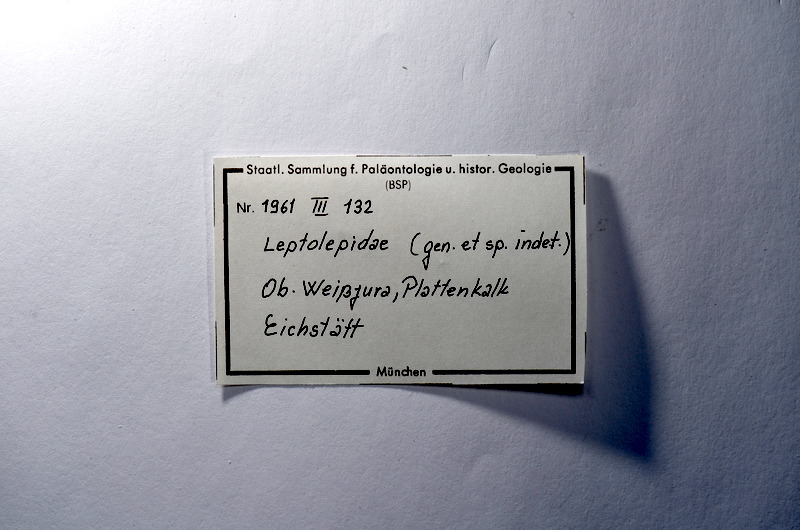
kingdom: Animalia
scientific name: Animalia
